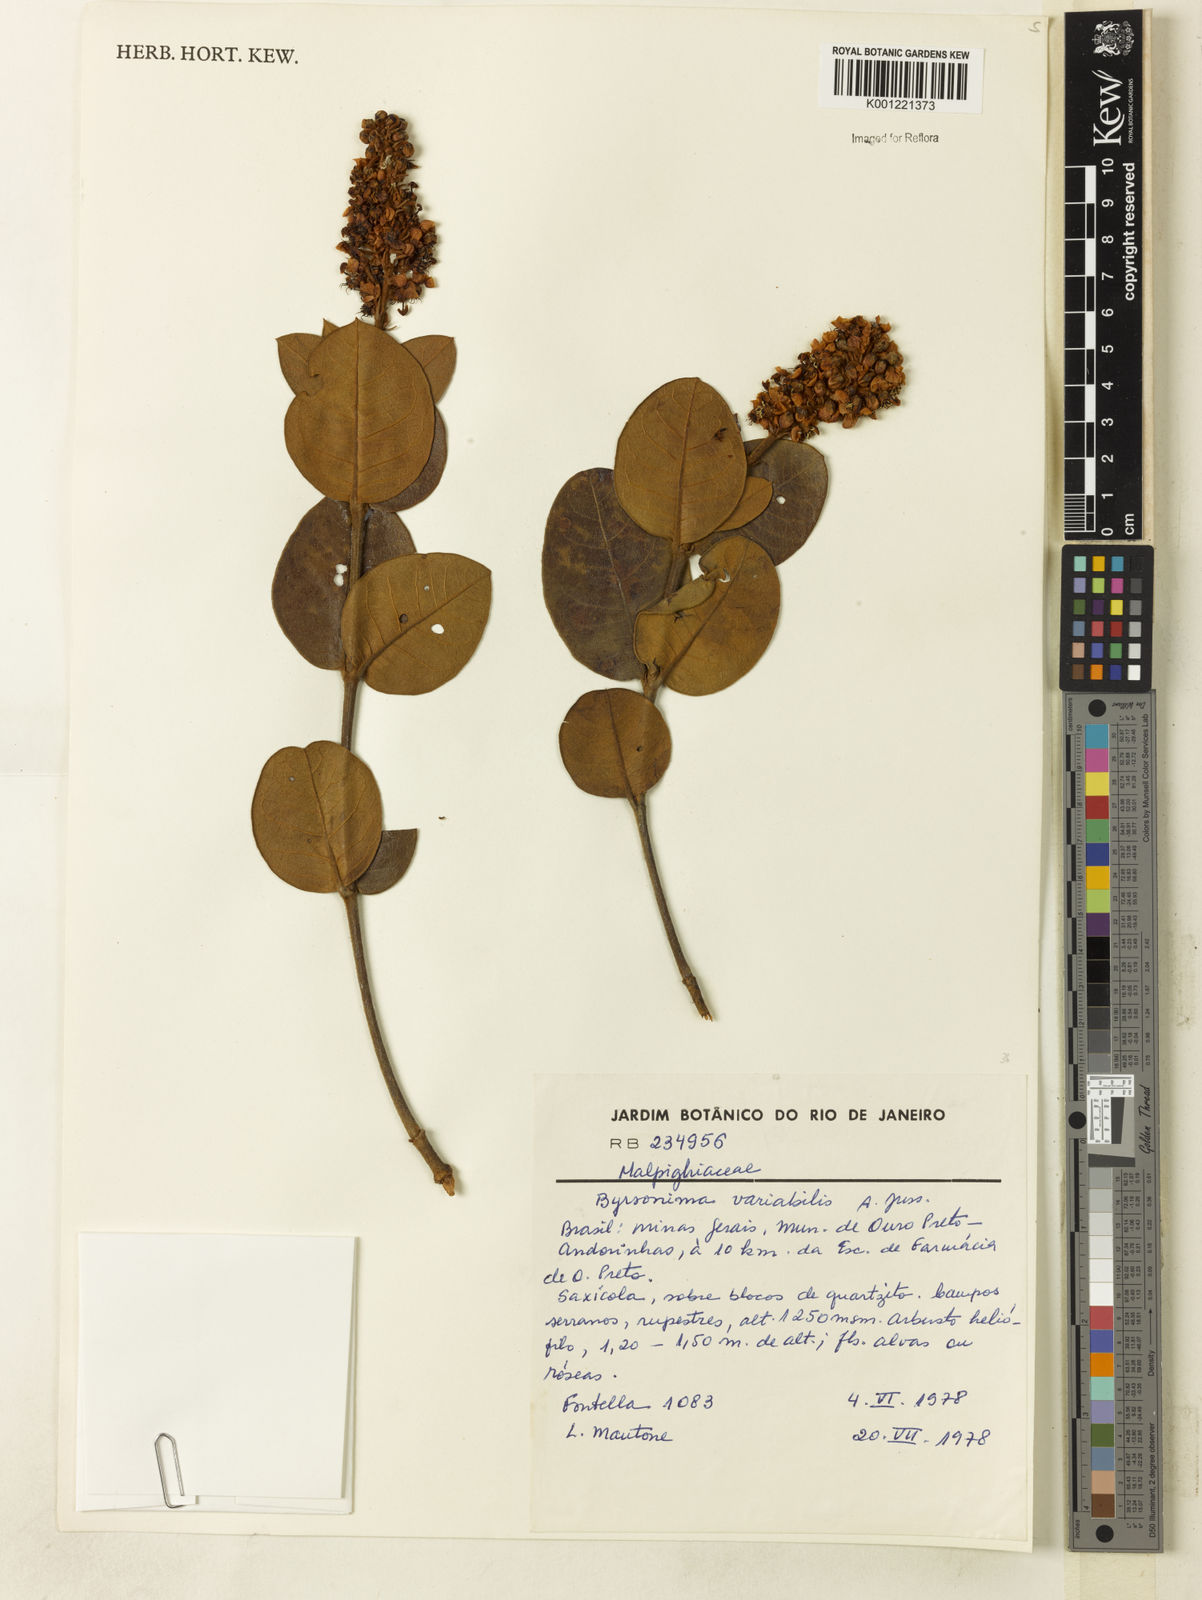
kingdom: Plantae
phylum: Tracheophyta
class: Magnoliopsida
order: Malpighiales
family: Malpighiaceae
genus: Byrsonima
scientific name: Byrsonima variabilis
